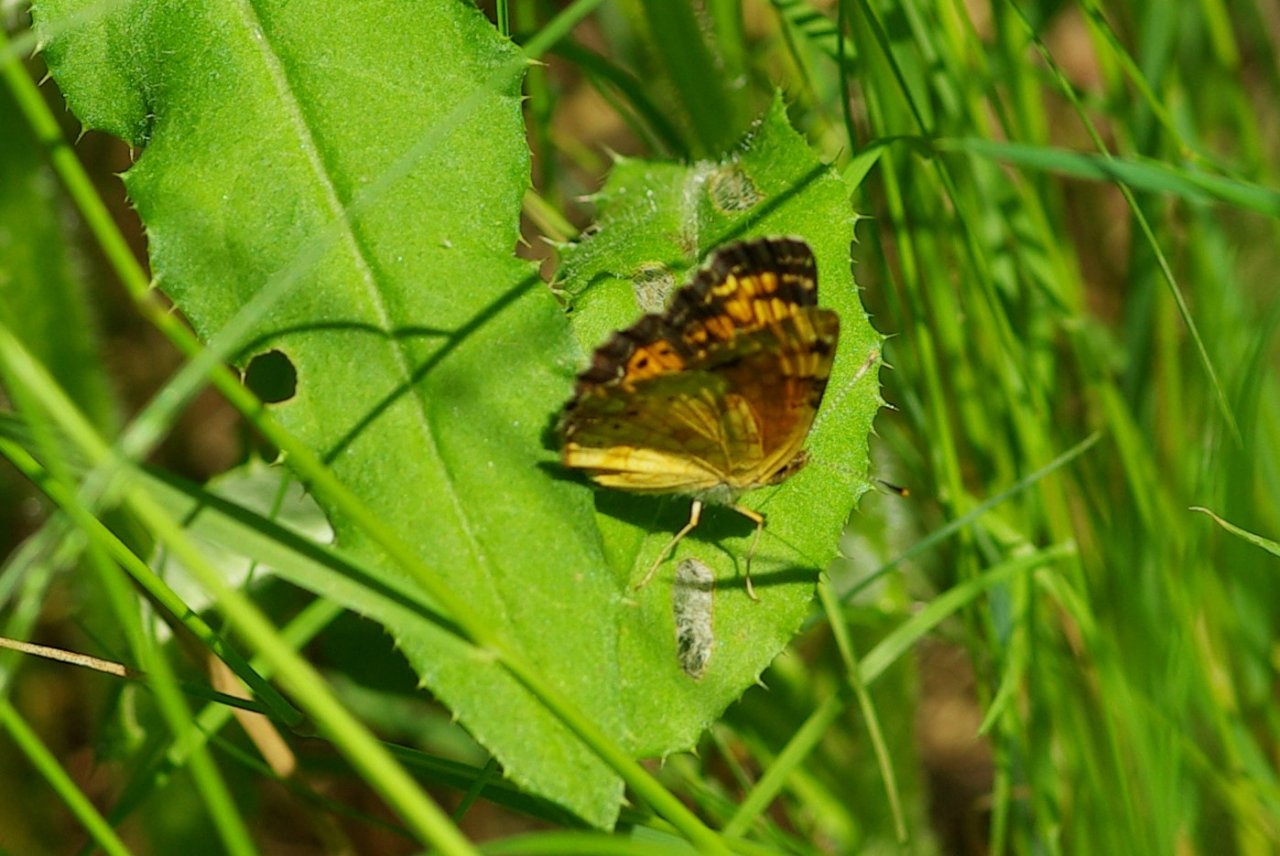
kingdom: Animalia
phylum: Arthropoda
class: Insecta
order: Lepidoptera
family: Nymphalidae
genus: Phyciodes
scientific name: Phyciodes tharos
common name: Northern Crescent
